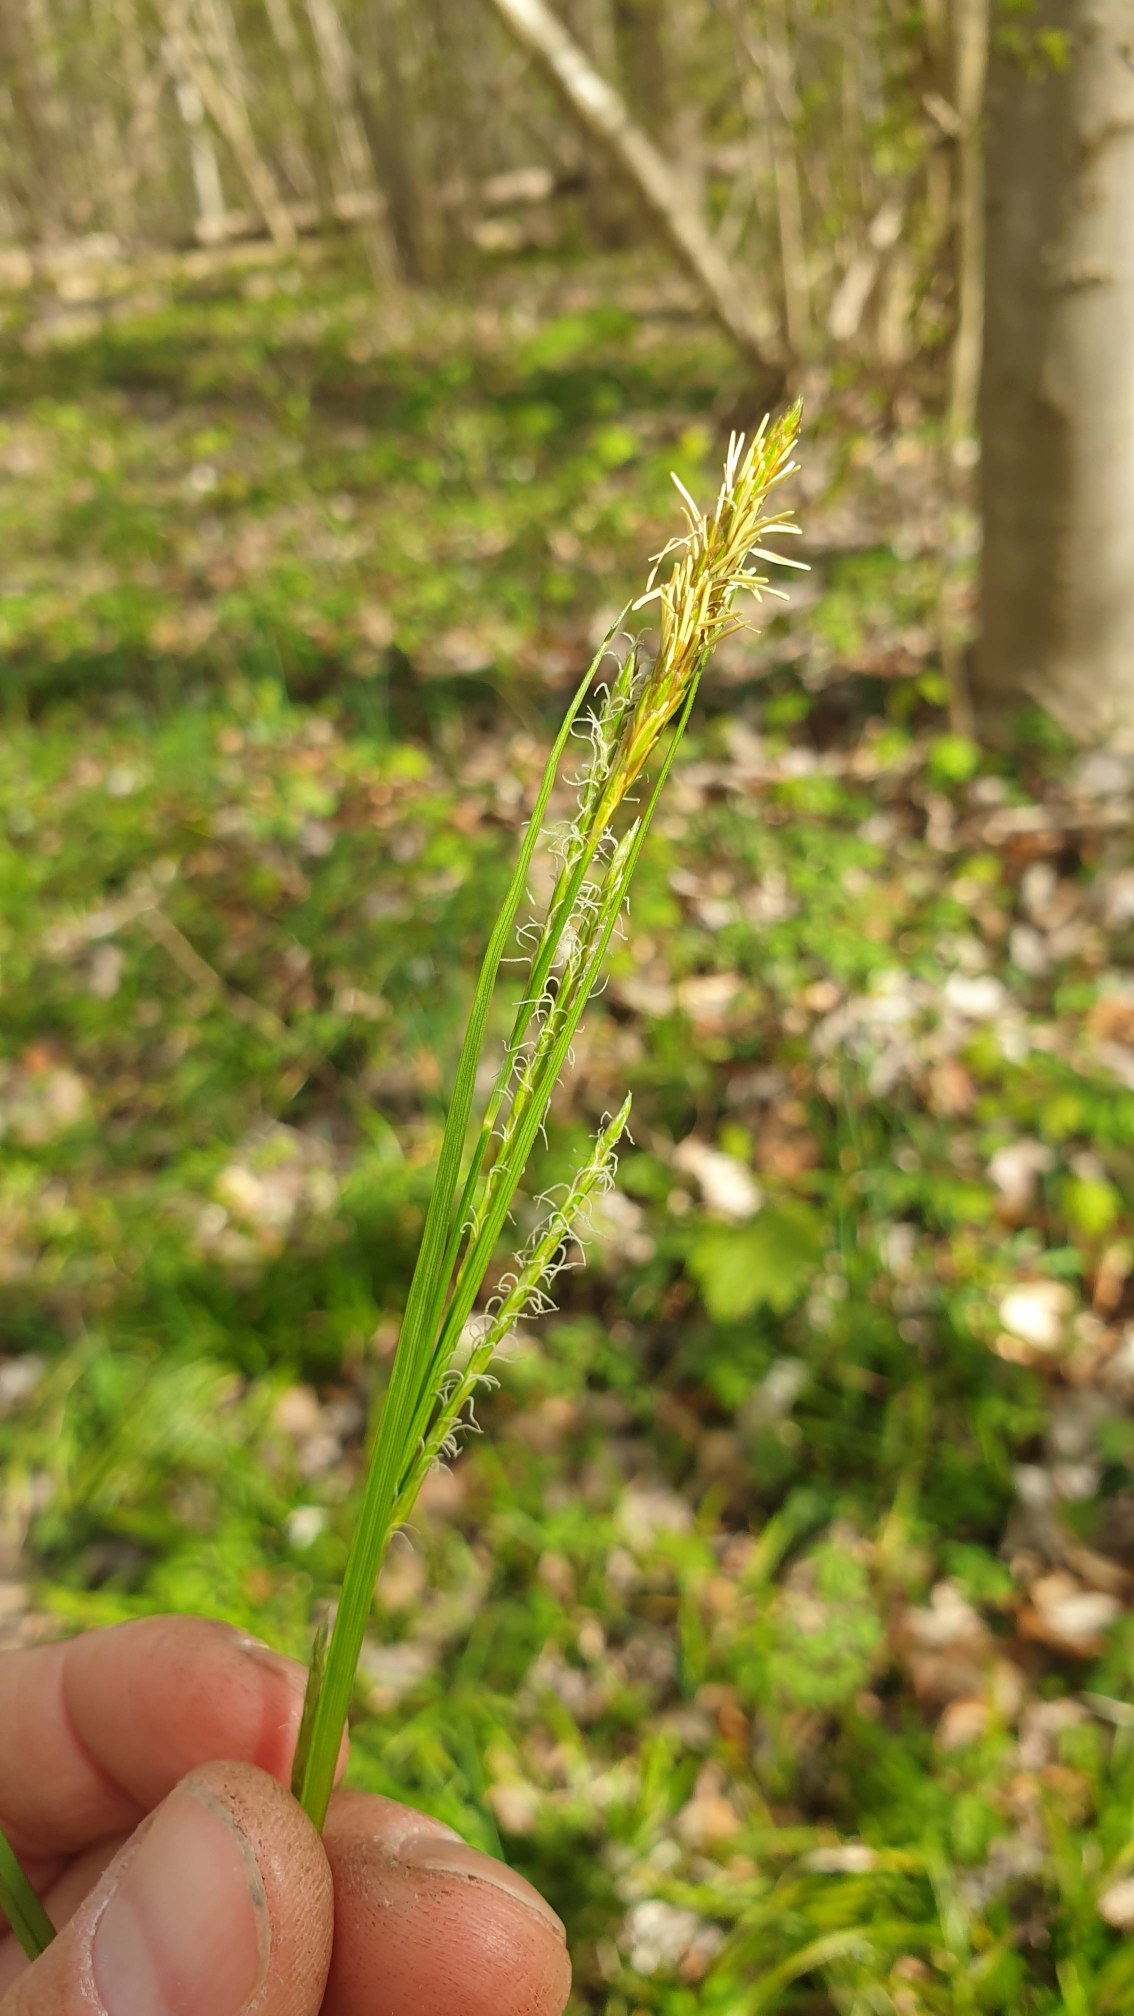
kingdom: Plantae
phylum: Tracheophyta
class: Liliopsida
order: Poales
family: Cyperaceae
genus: Carex
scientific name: Carex sylvatica
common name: Skov-star
